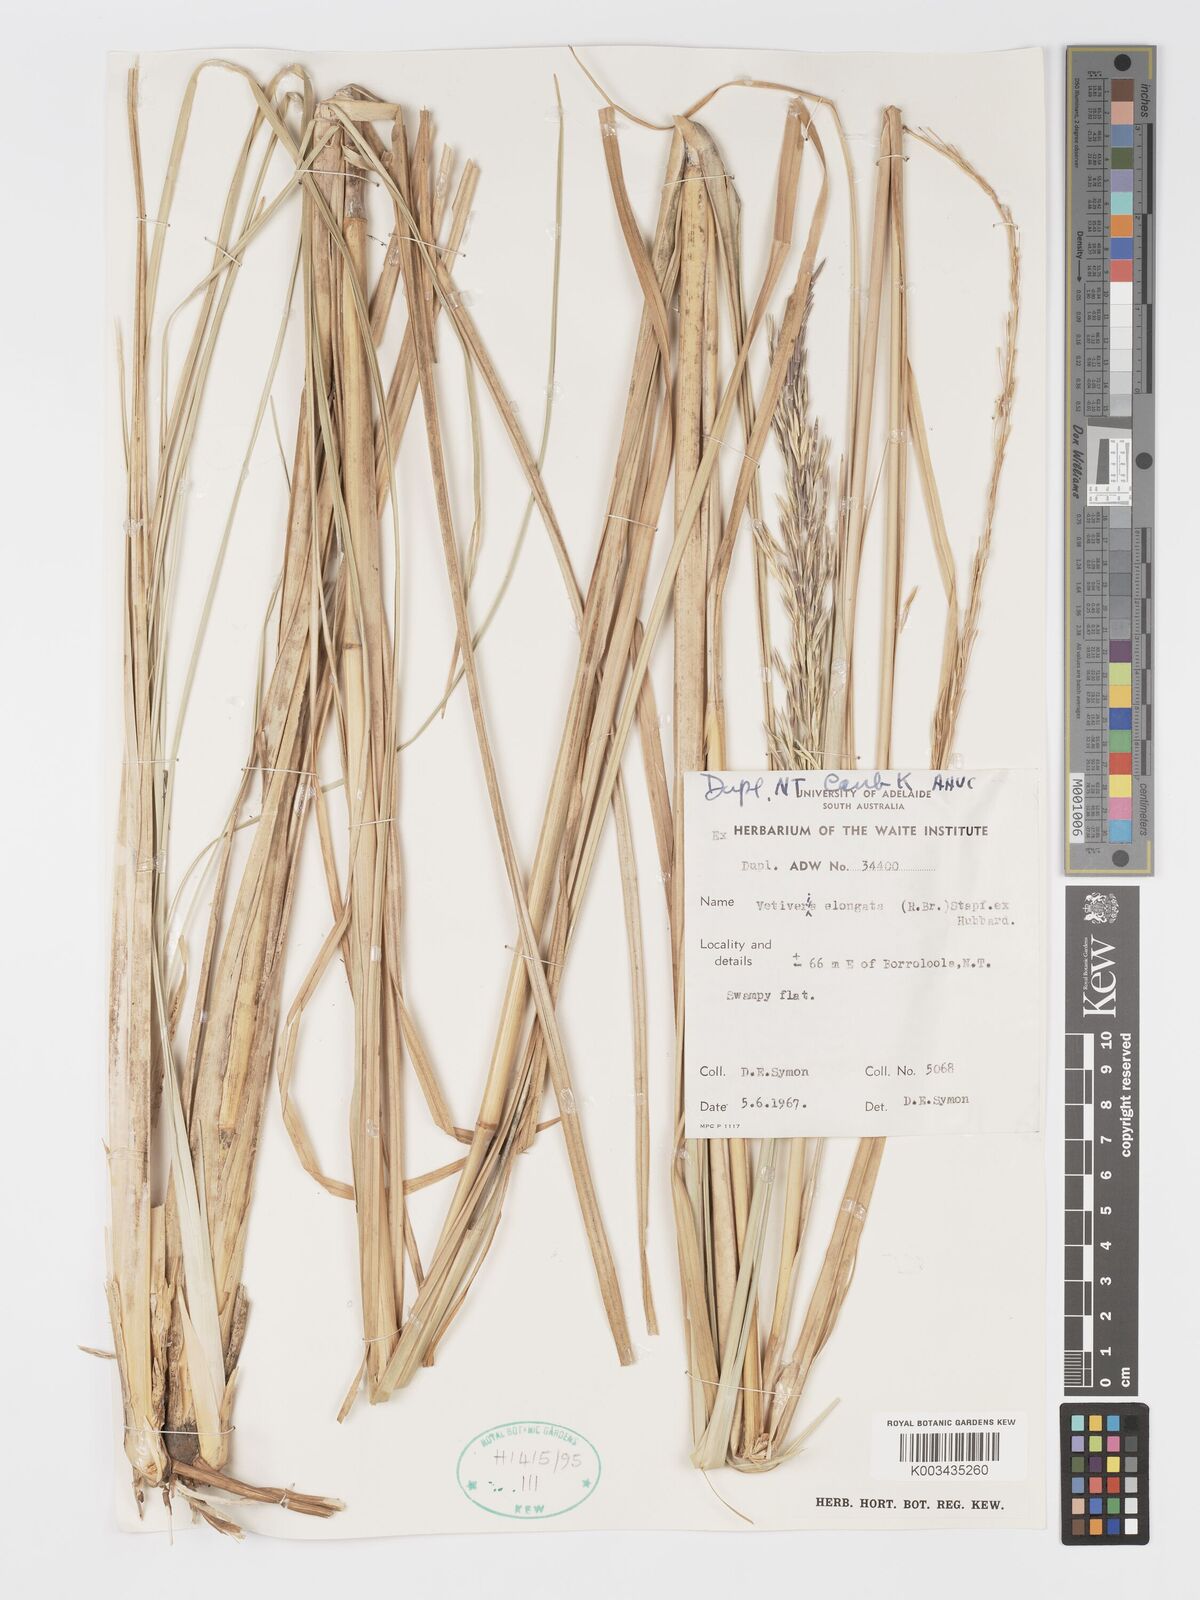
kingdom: Plantae
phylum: Tracheophyta
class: Liliopsida
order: Poales
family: Poaceae
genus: Chrysopogon
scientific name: Chrysopogon elongatus
